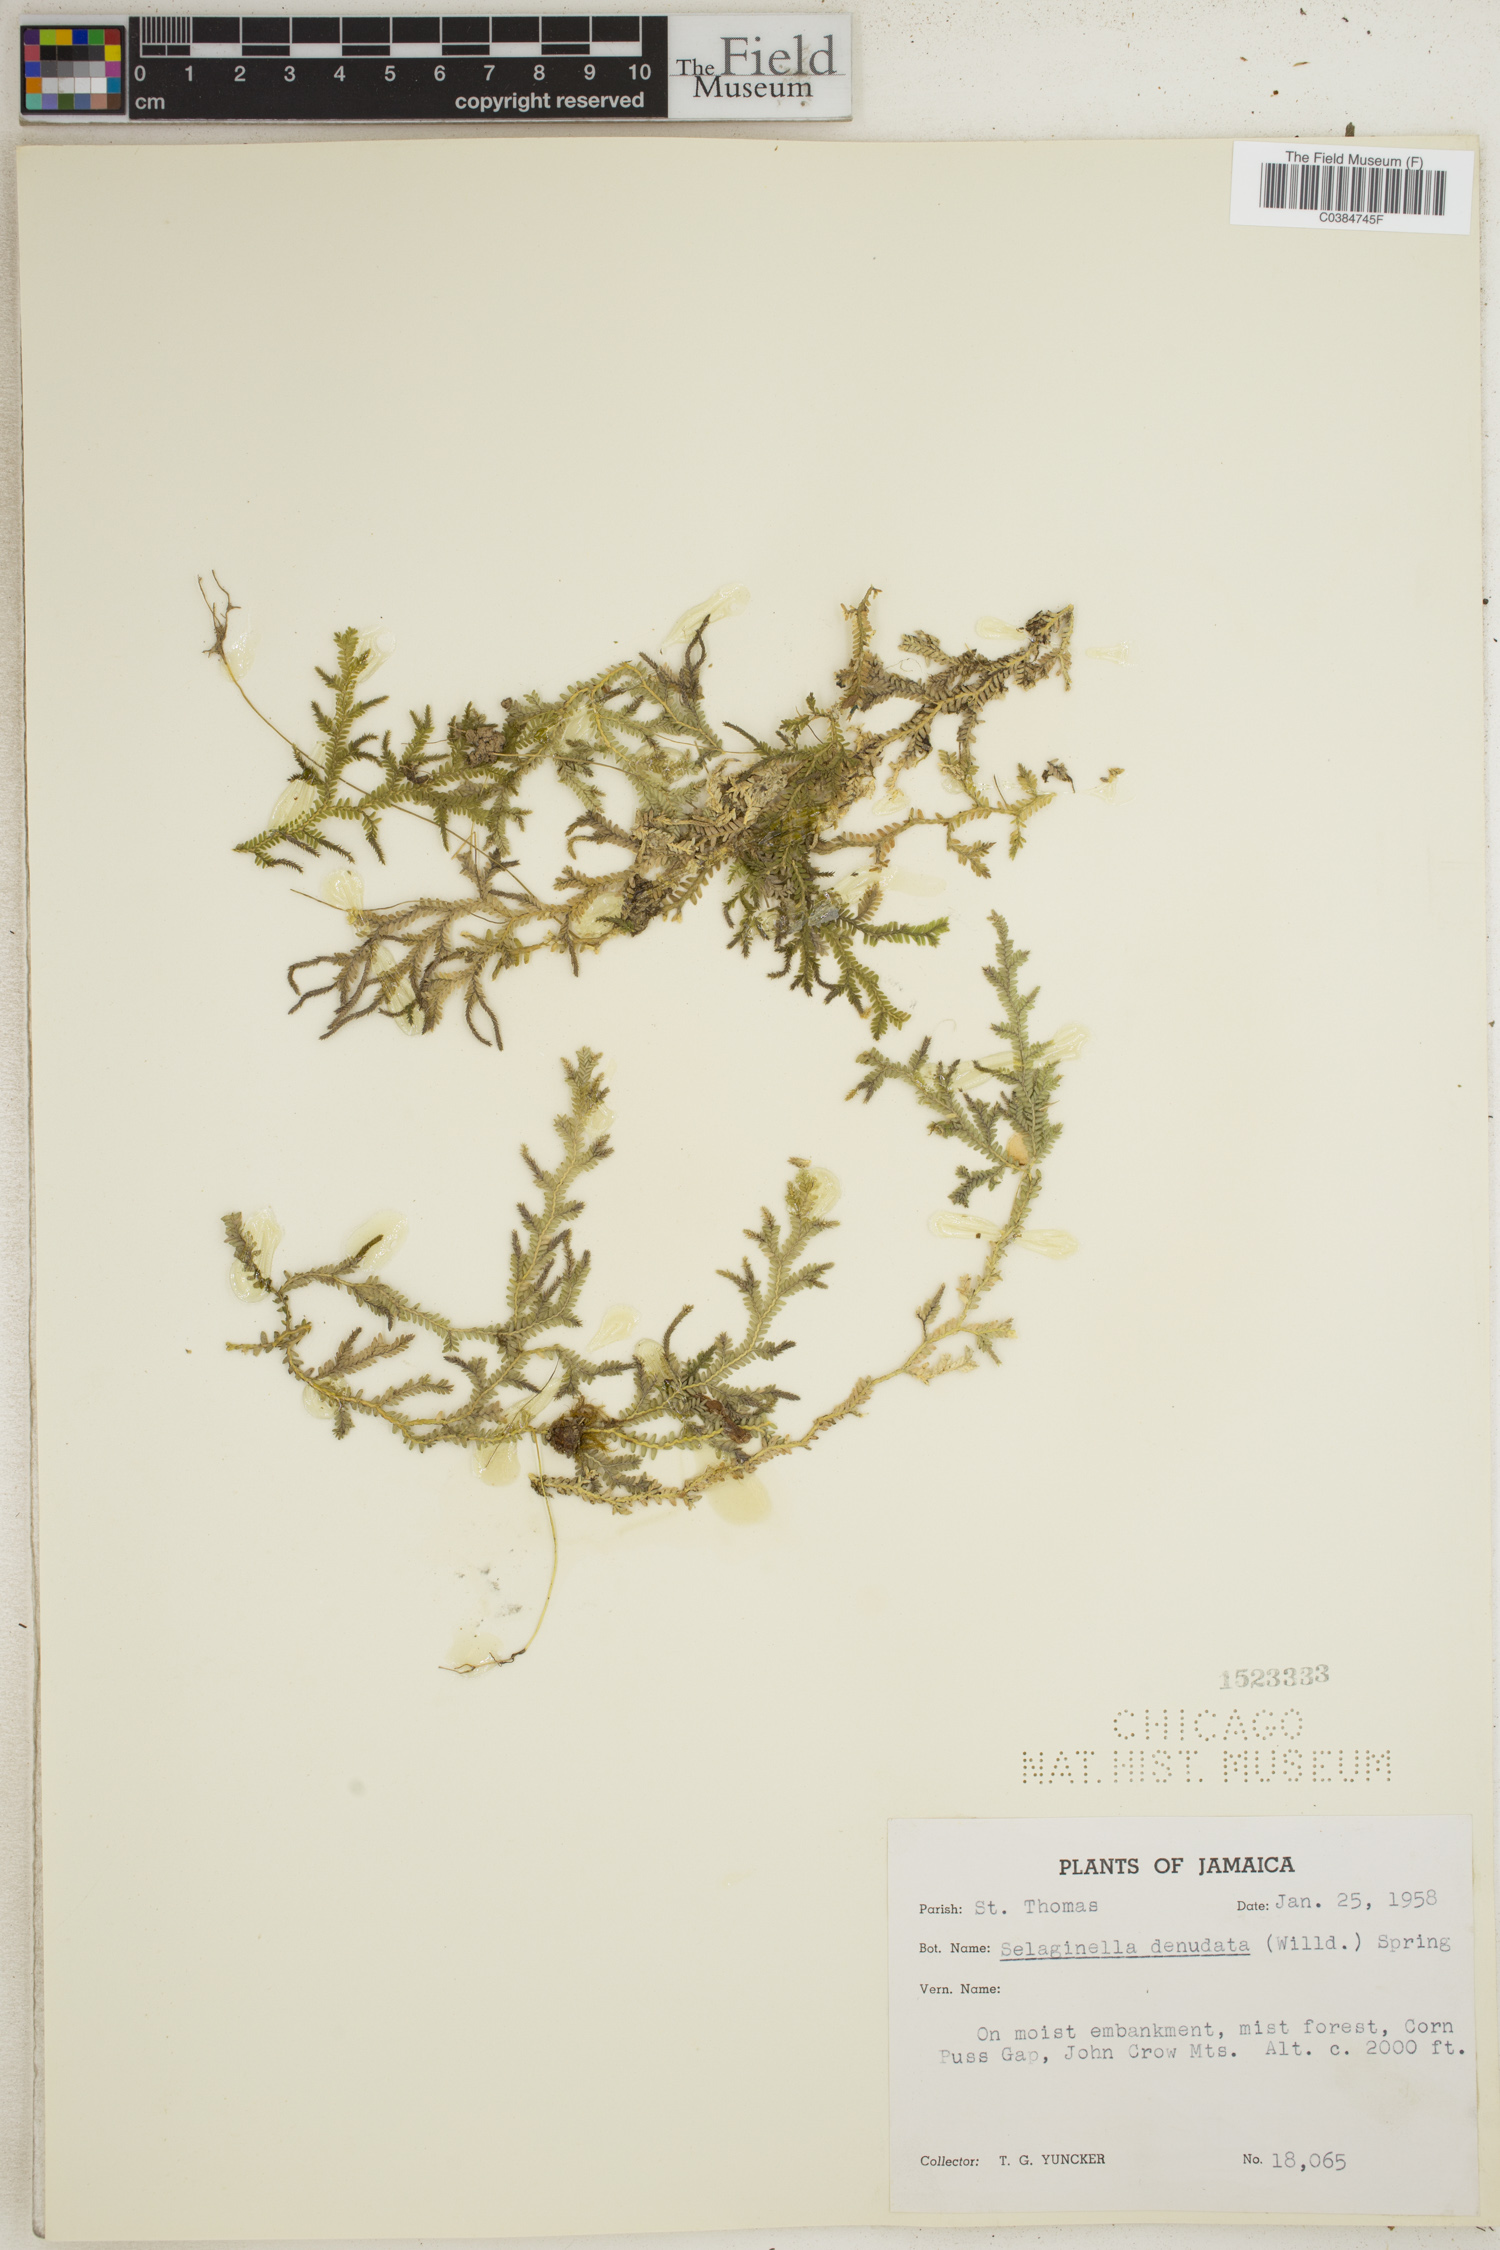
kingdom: Plantae
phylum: Tracheophyta
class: Lycopodiopsida
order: Selaginellales
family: Selaginellaceae
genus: Selaginella
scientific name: Selaginella denudata
